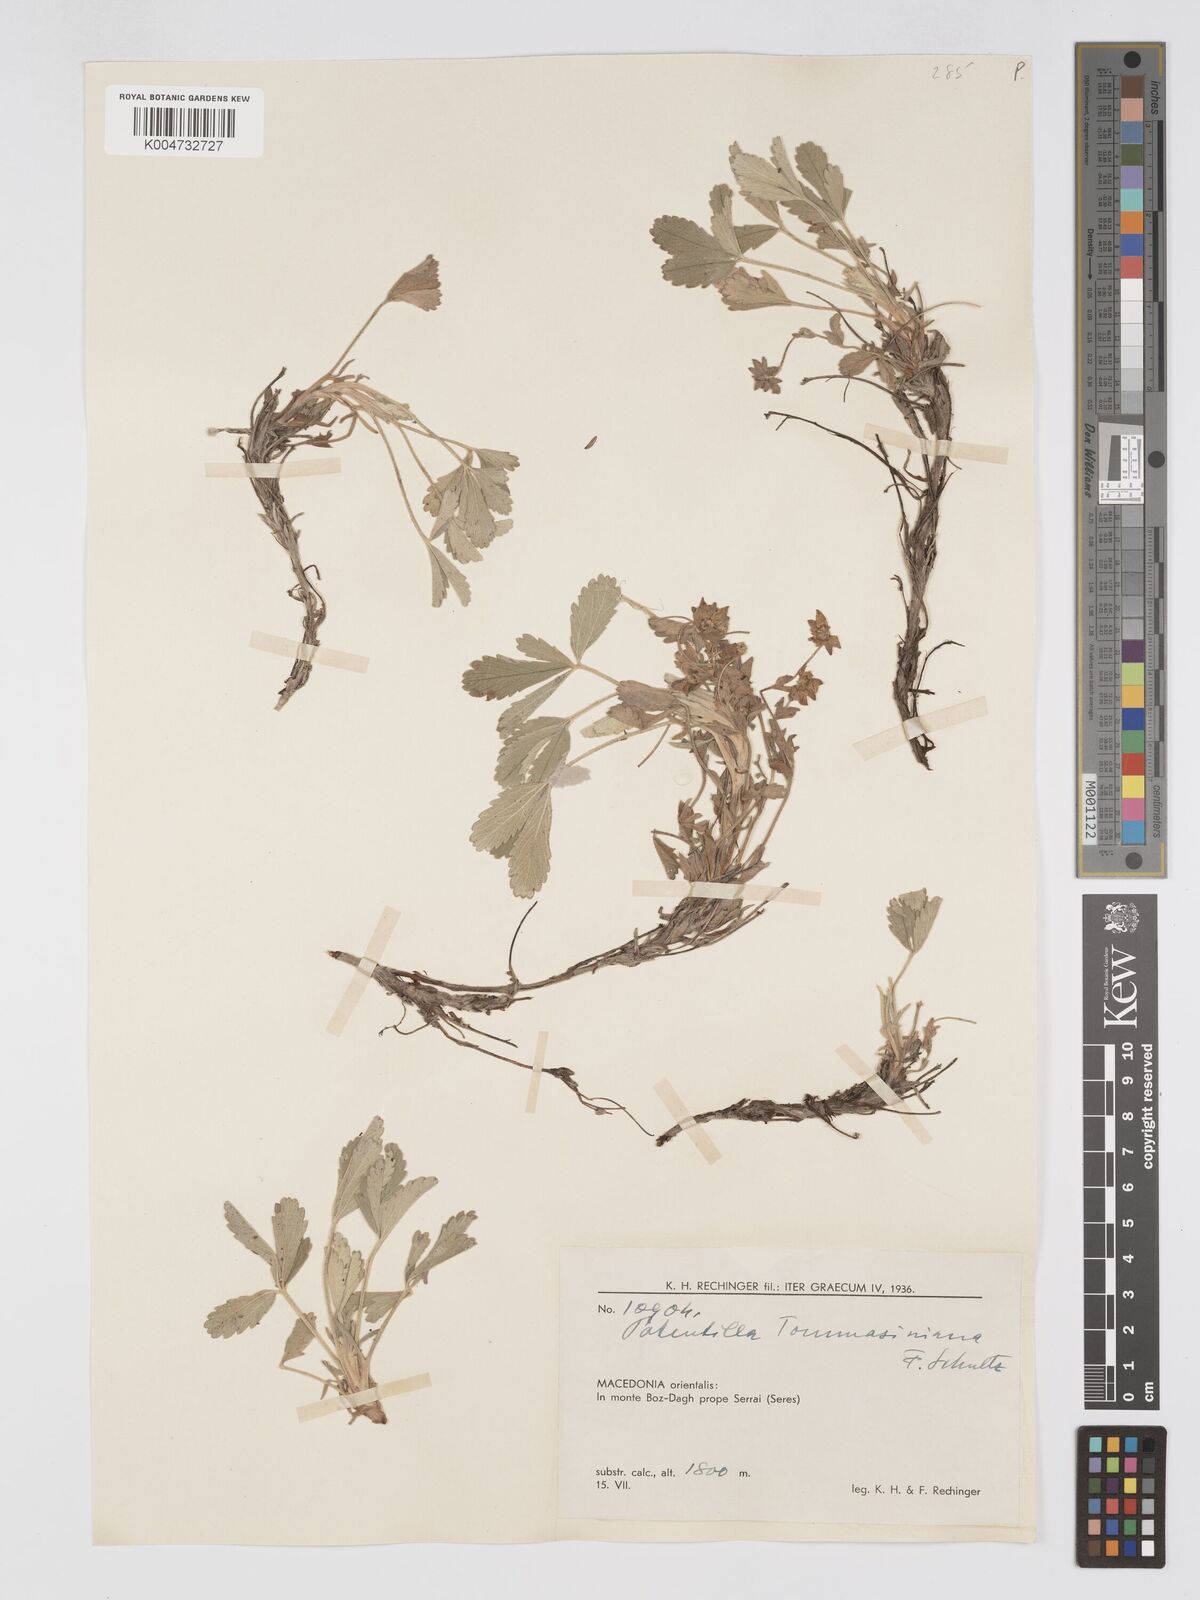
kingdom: Plantae
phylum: Tracheophyta
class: Magnoliopsida
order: Rosales
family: Rosaceae
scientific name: Rosaceae
